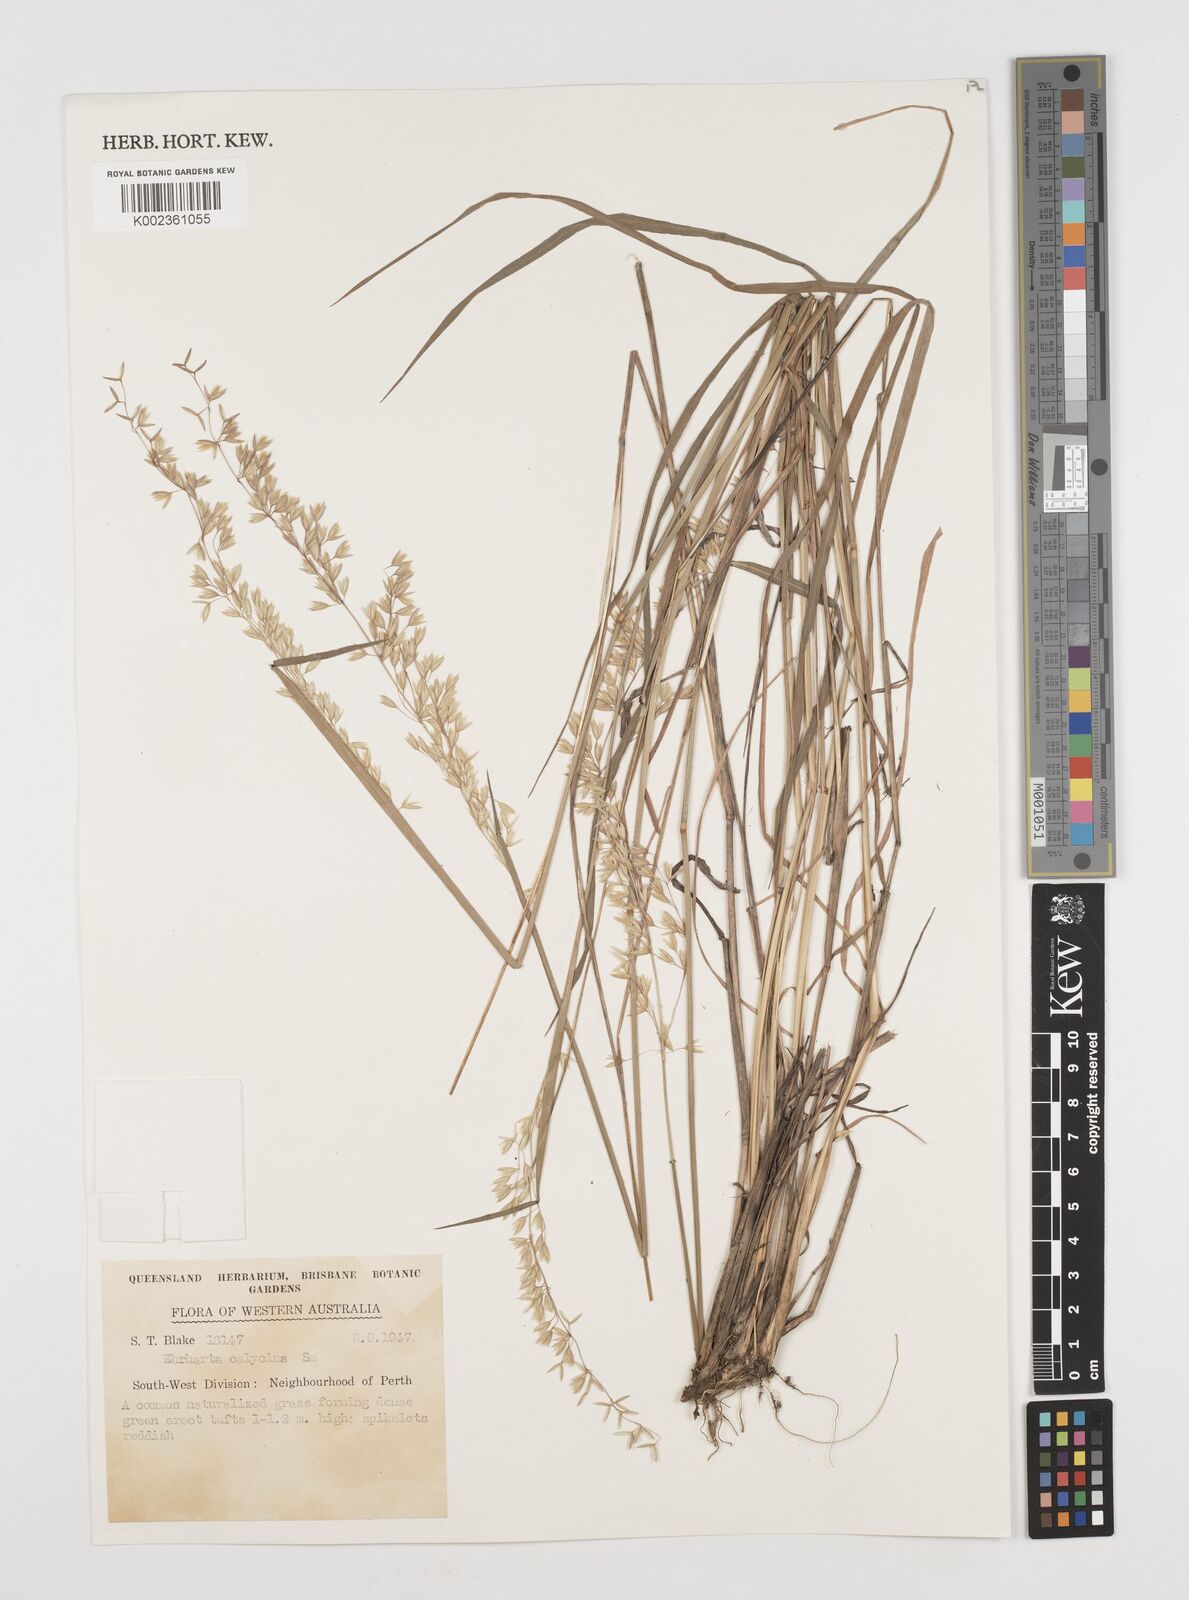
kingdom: Plantae
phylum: Tracheophyta
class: Liliopsida
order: Poales
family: Poaceae
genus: Ehrharta
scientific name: Ehrharta calycina
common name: Perennial veldtgrass
